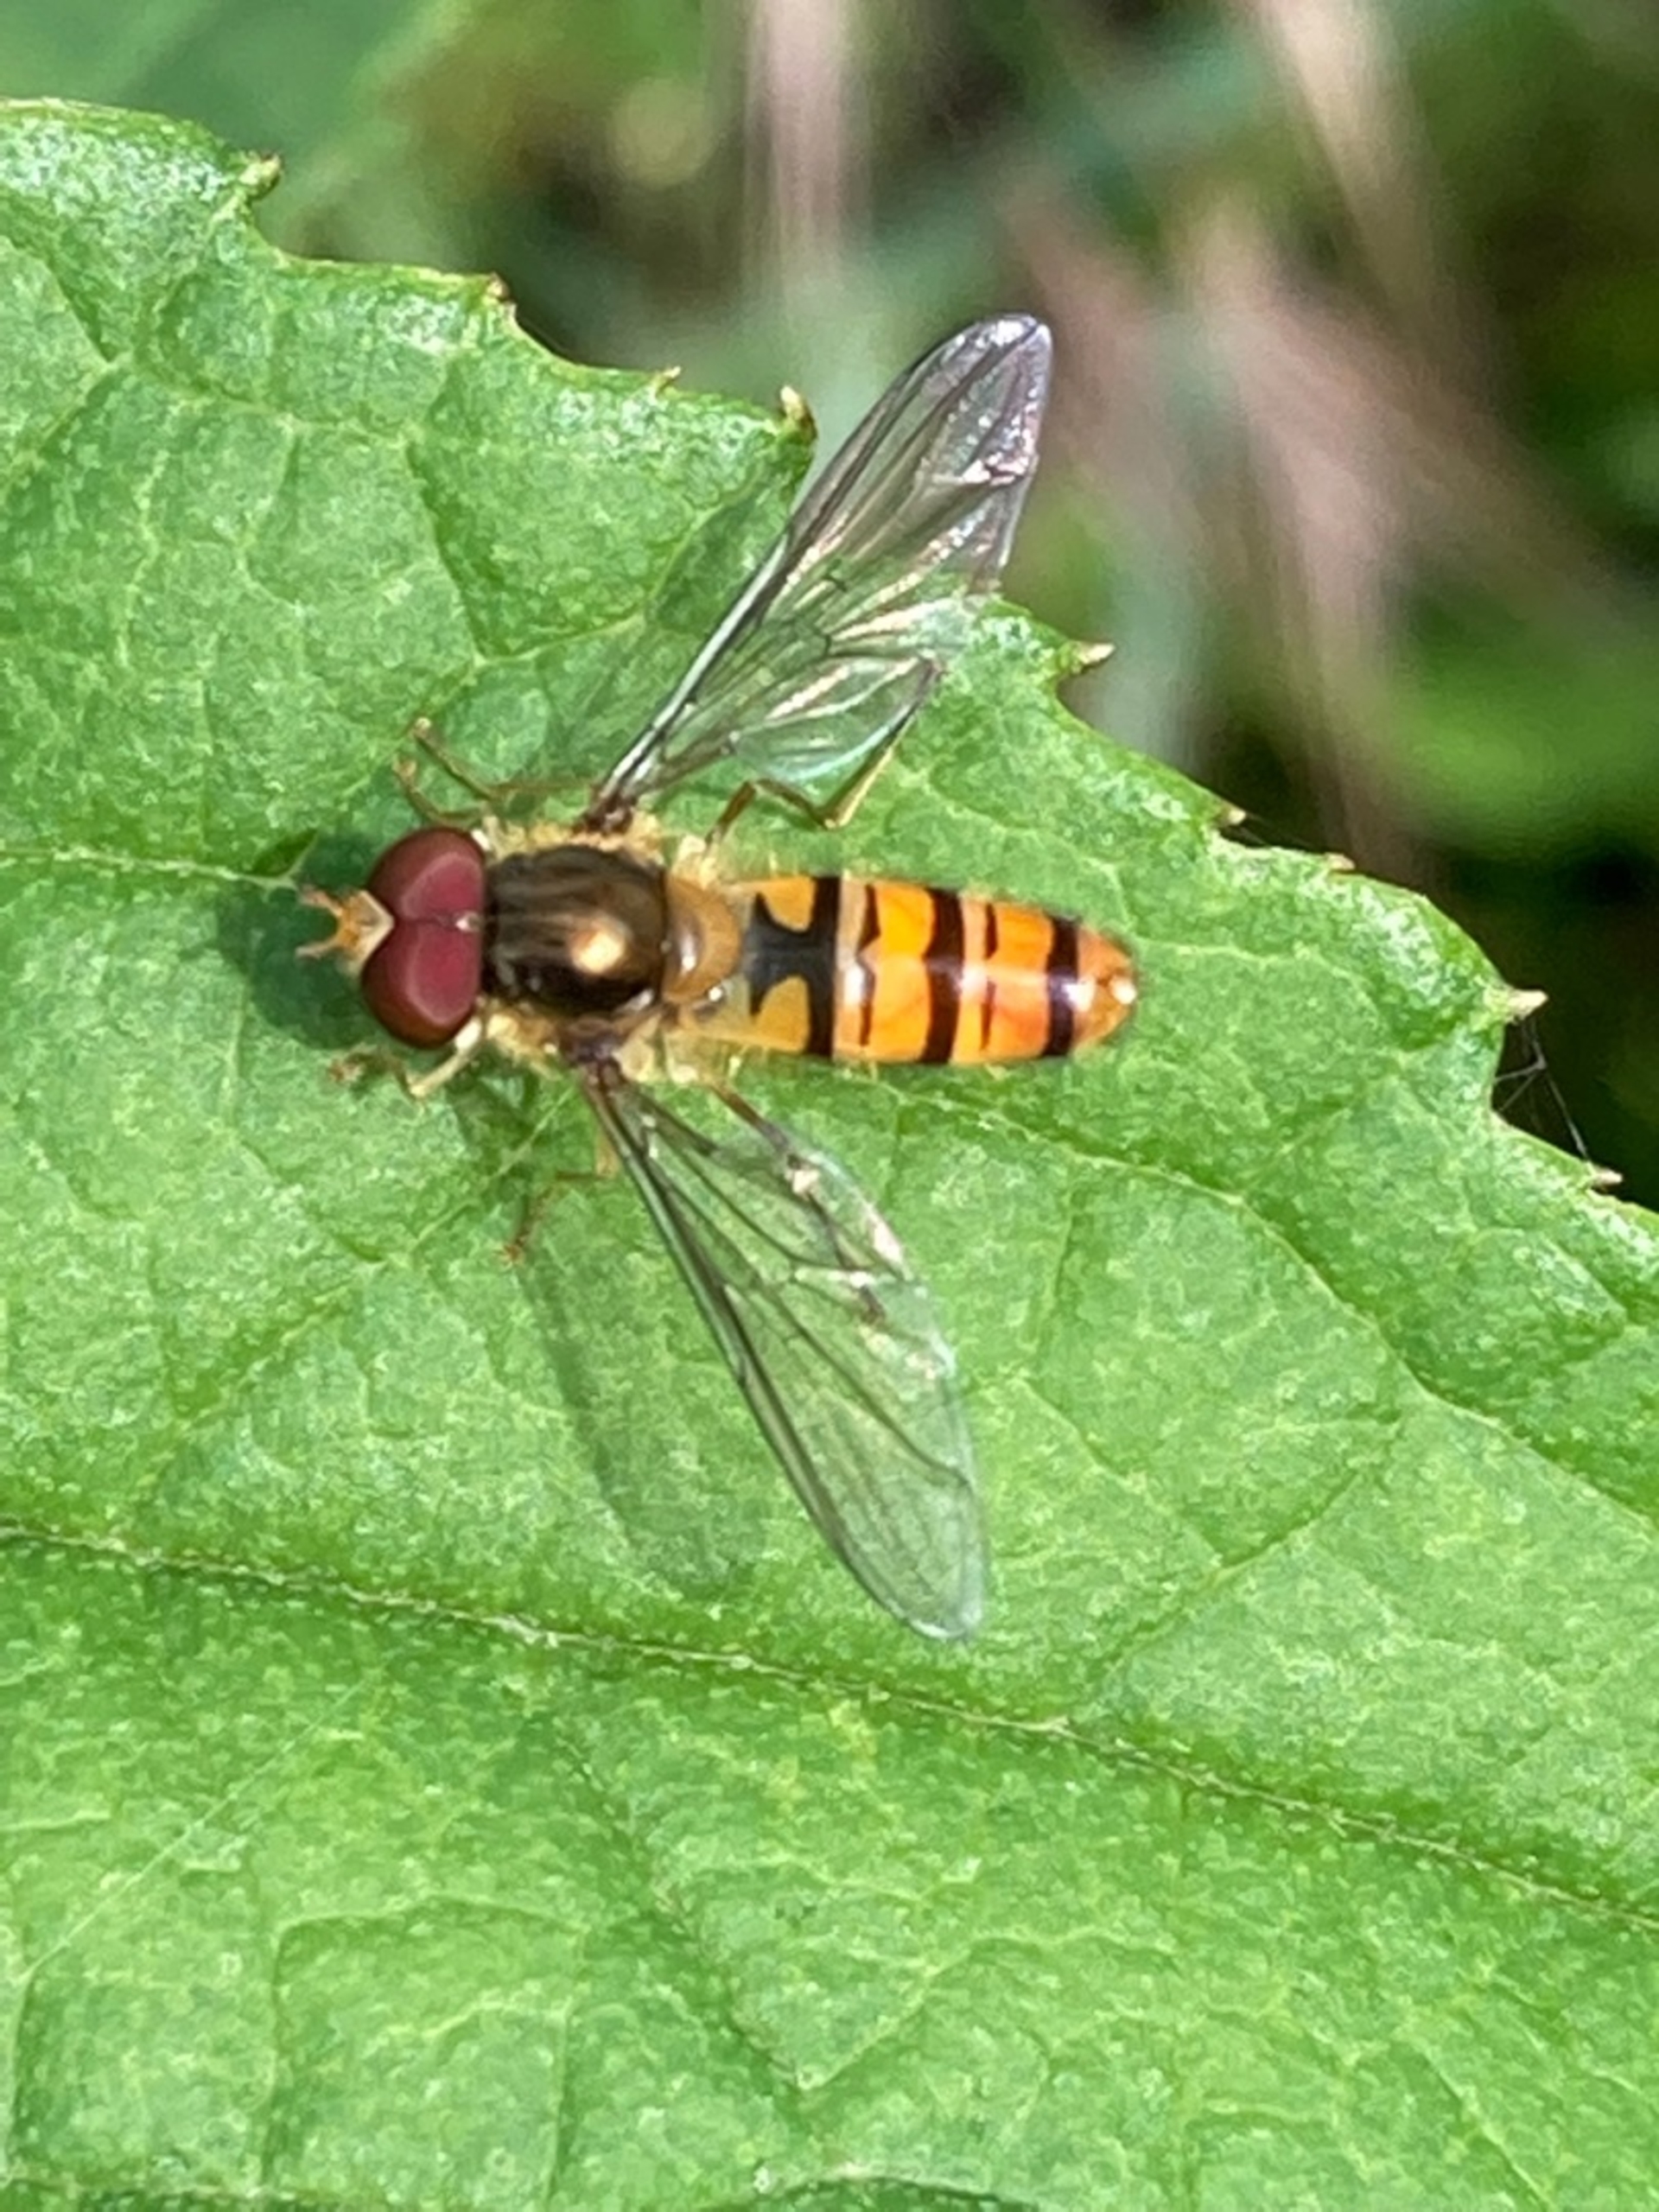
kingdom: Animalia
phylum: Arthropoda
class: Insecta
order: Diptera
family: Syrphidae
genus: Episyrphus
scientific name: Episyrphus balteatus
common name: Dobbeltbåndet svirreflue
